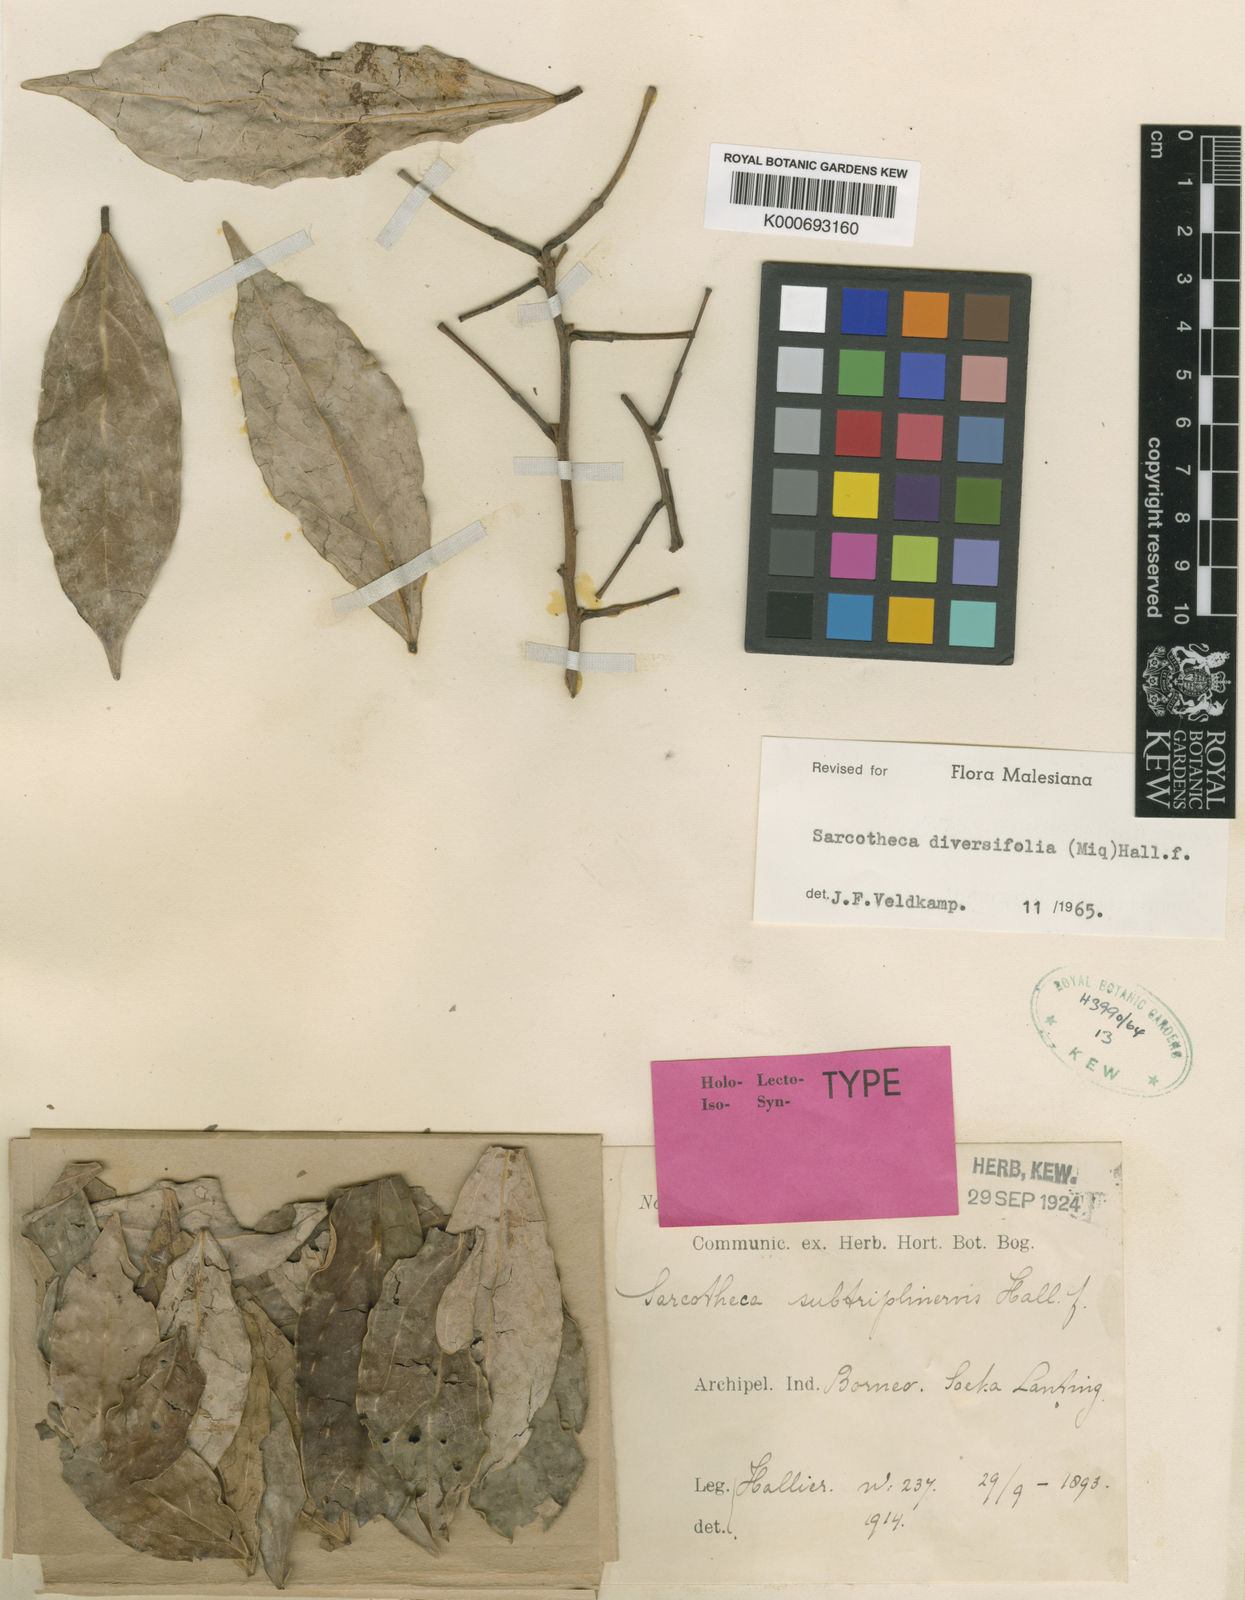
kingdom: Plantae
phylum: Tracheophyta
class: Magnoliopsida
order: Oxalidales
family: Oxalidaceae
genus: Sarcotheca
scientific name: Sarcotheca diversifolia
